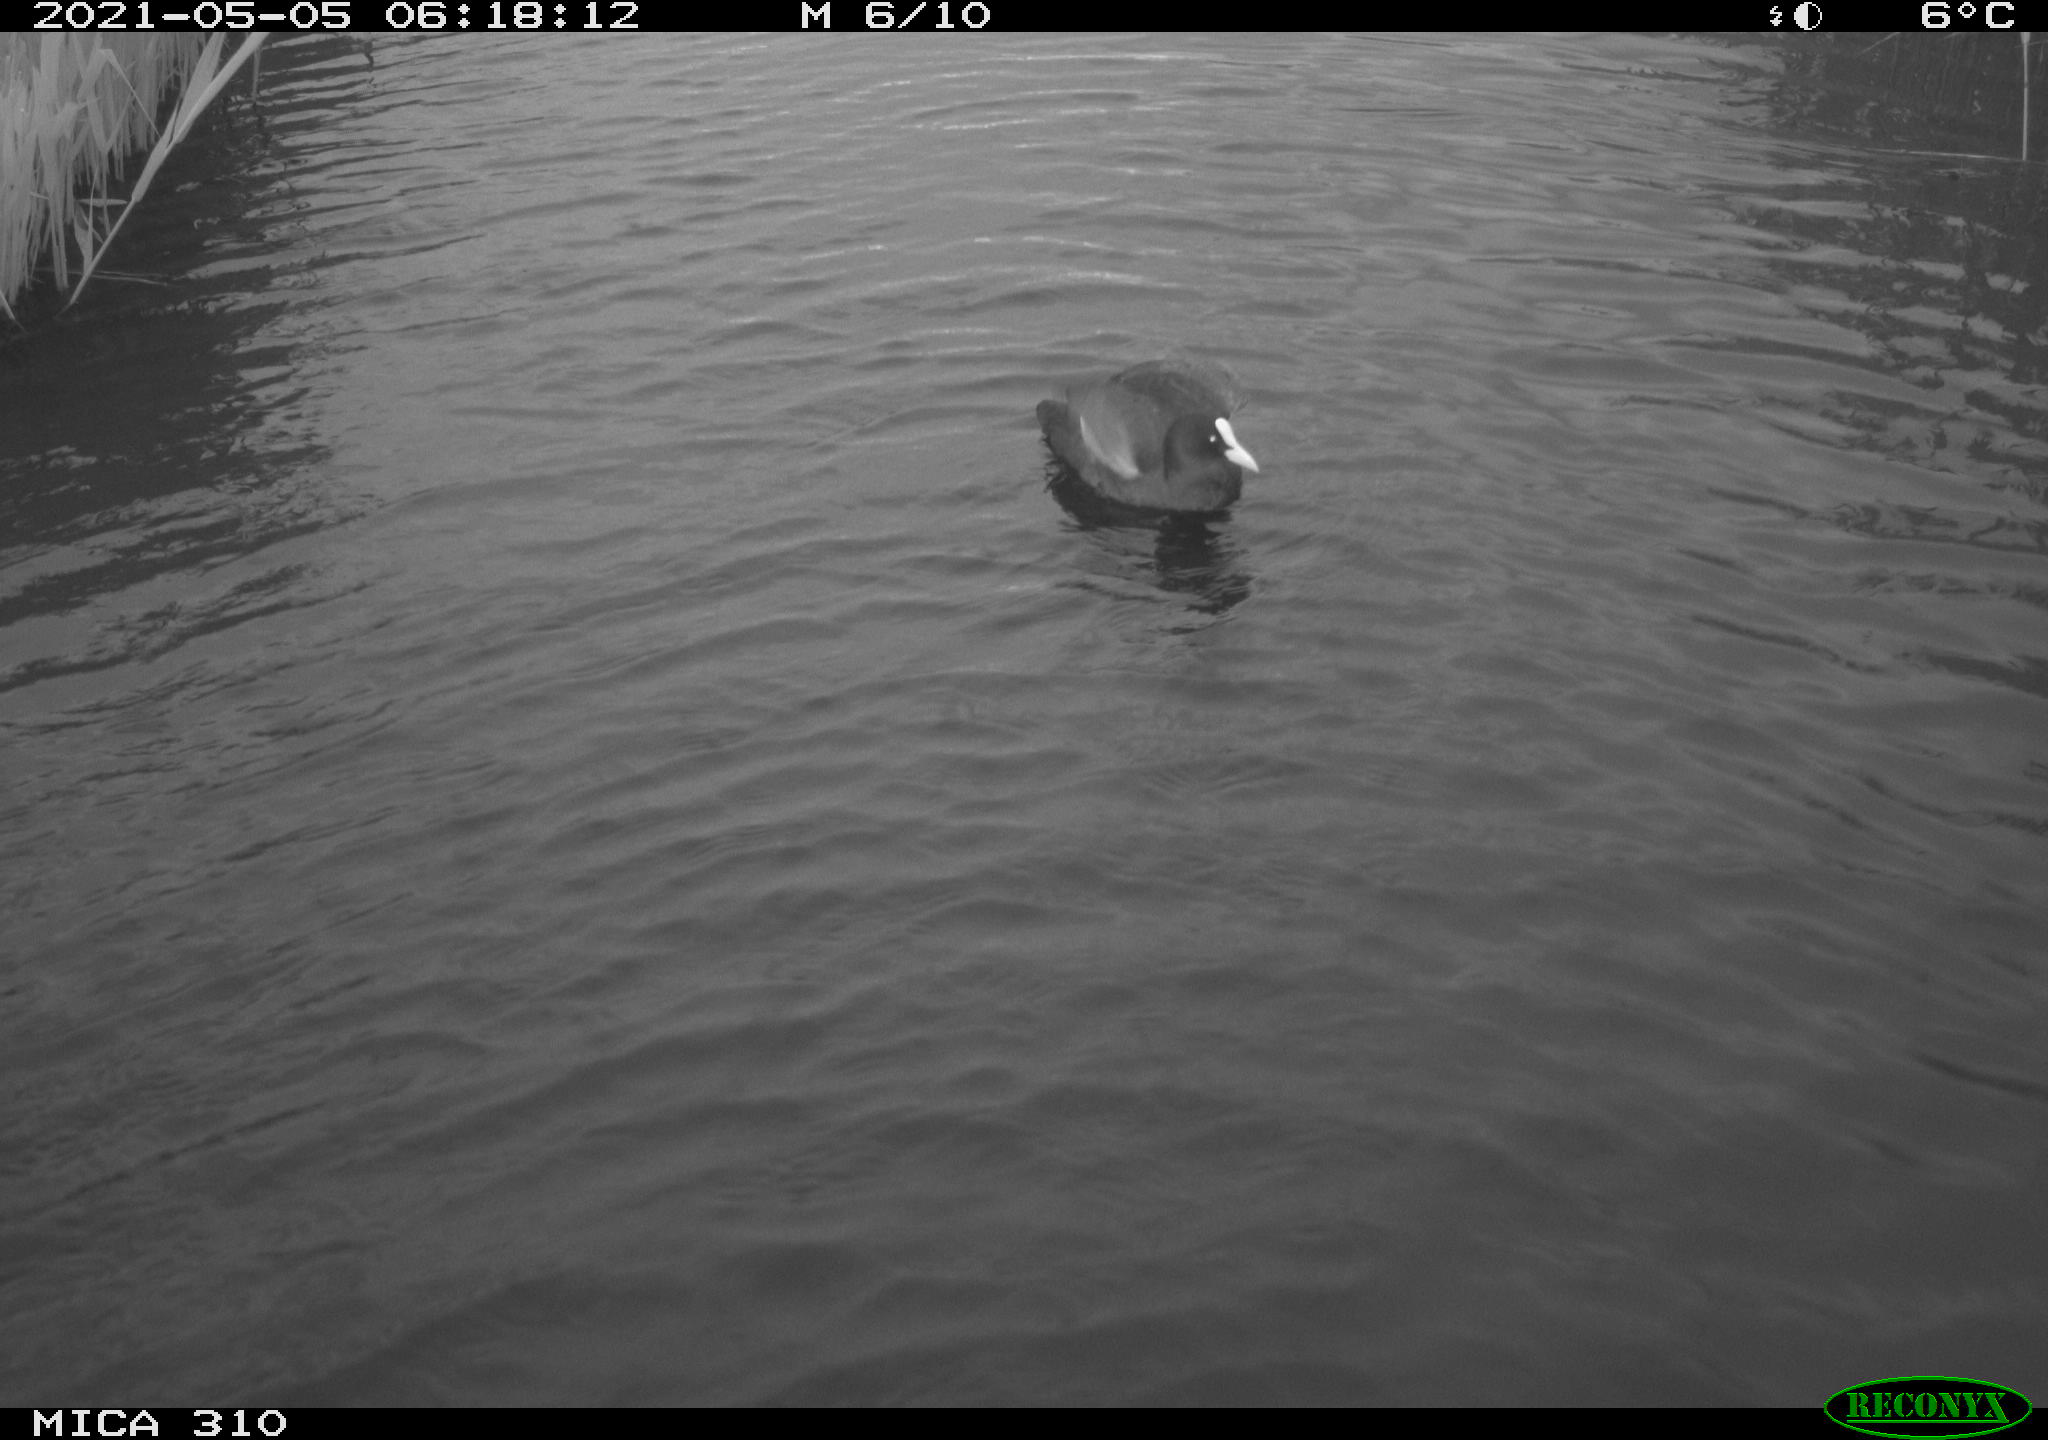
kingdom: Animalia
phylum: Chordata
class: Aves
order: Gruiformes
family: Rallidae
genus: Gallinula
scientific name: Gallinula chloropus
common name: Common moorhen
